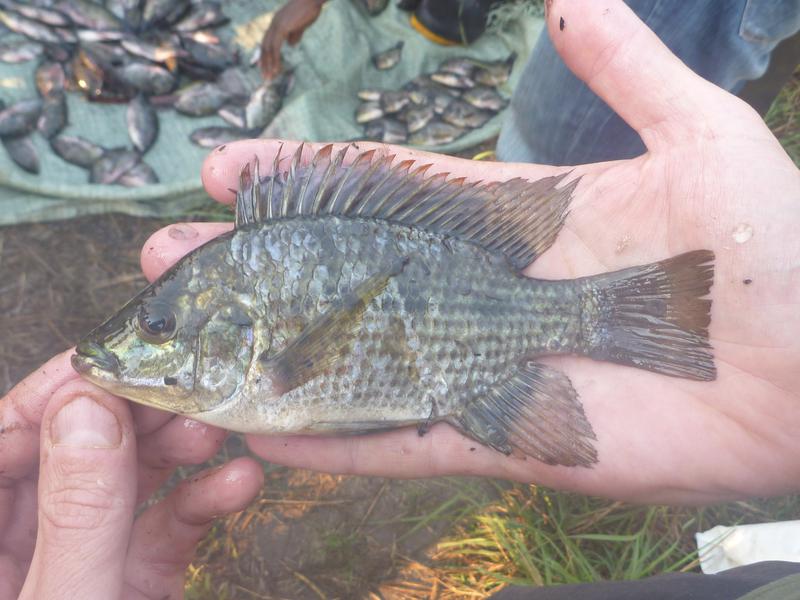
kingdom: Animalia
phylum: Chordata
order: Perciformes
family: Cichlidae
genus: Oreochromis
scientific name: Oreochromis karomo
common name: Karomo
